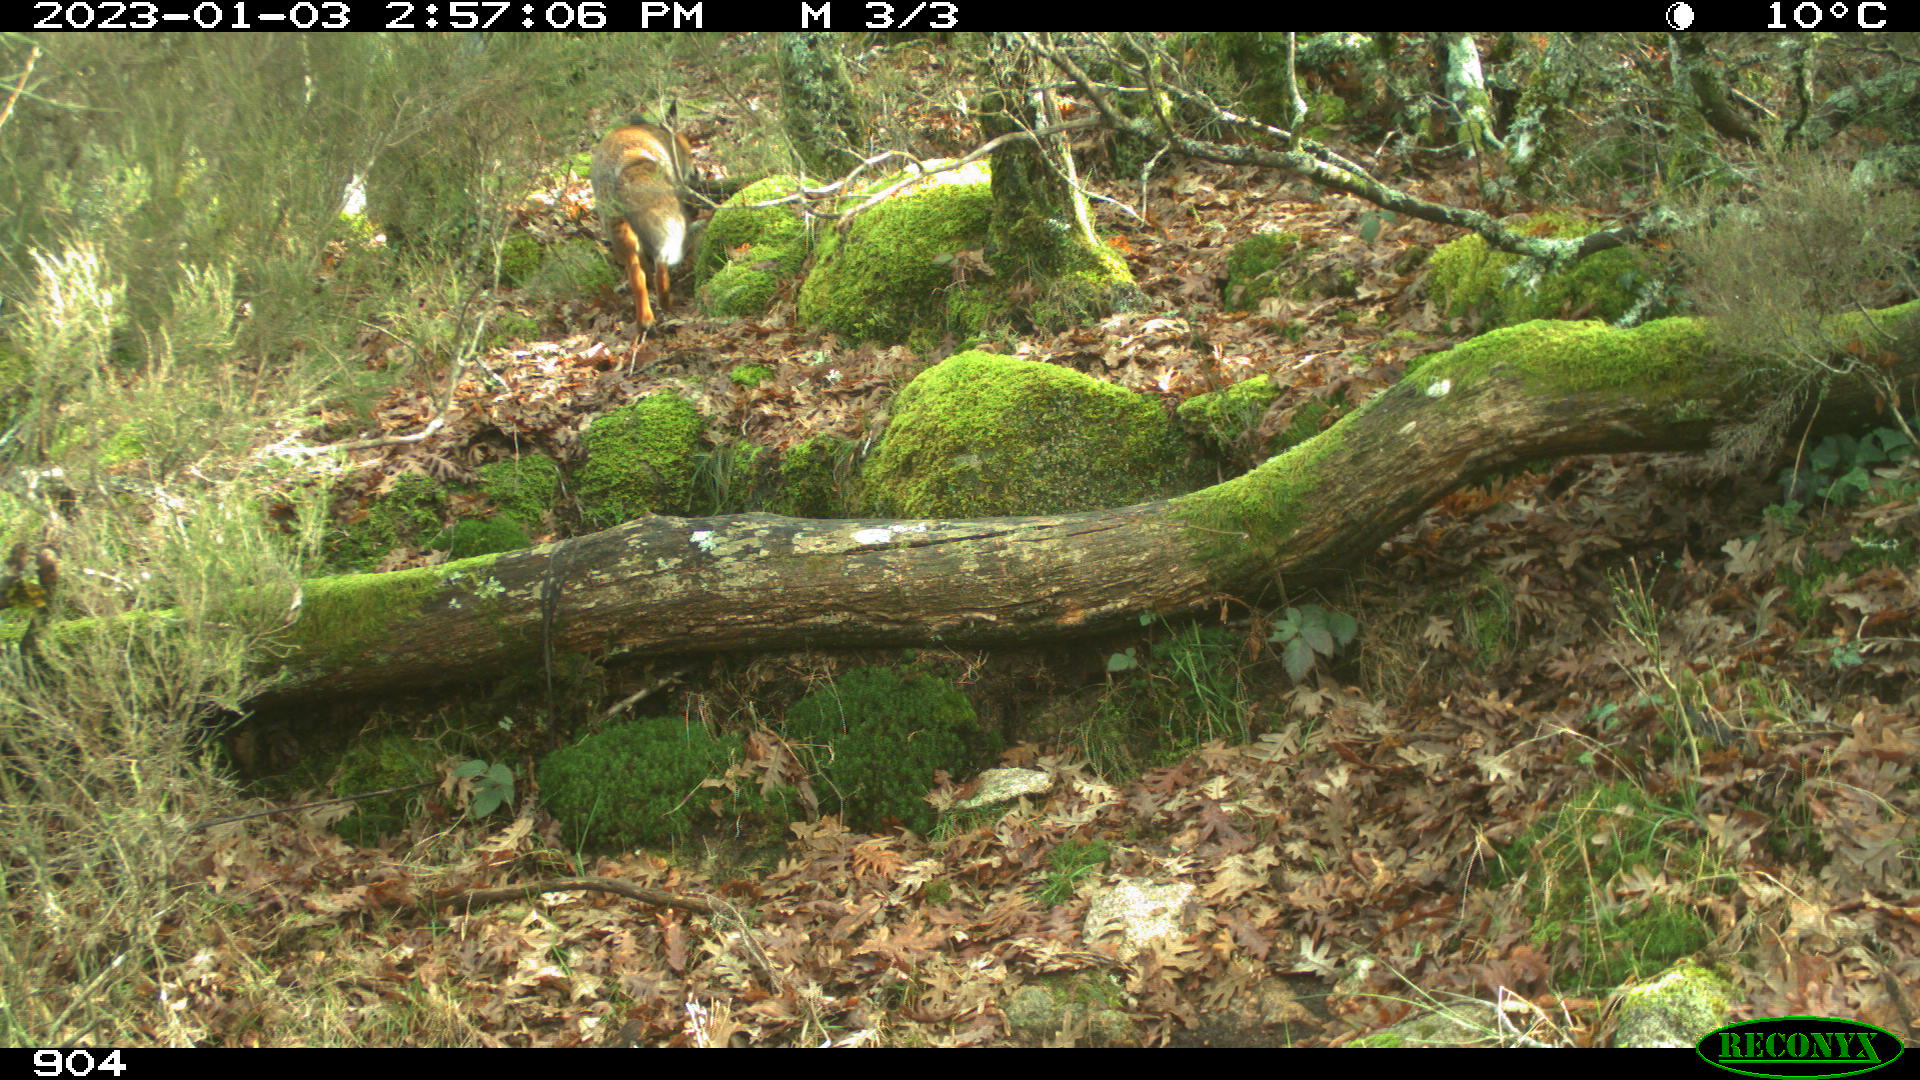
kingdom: Animalia
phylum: Chordata
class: Mammalia
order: Carnivora
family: Canidae
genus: Vulpes
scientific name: Vulpes vulpes
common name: Red fox
